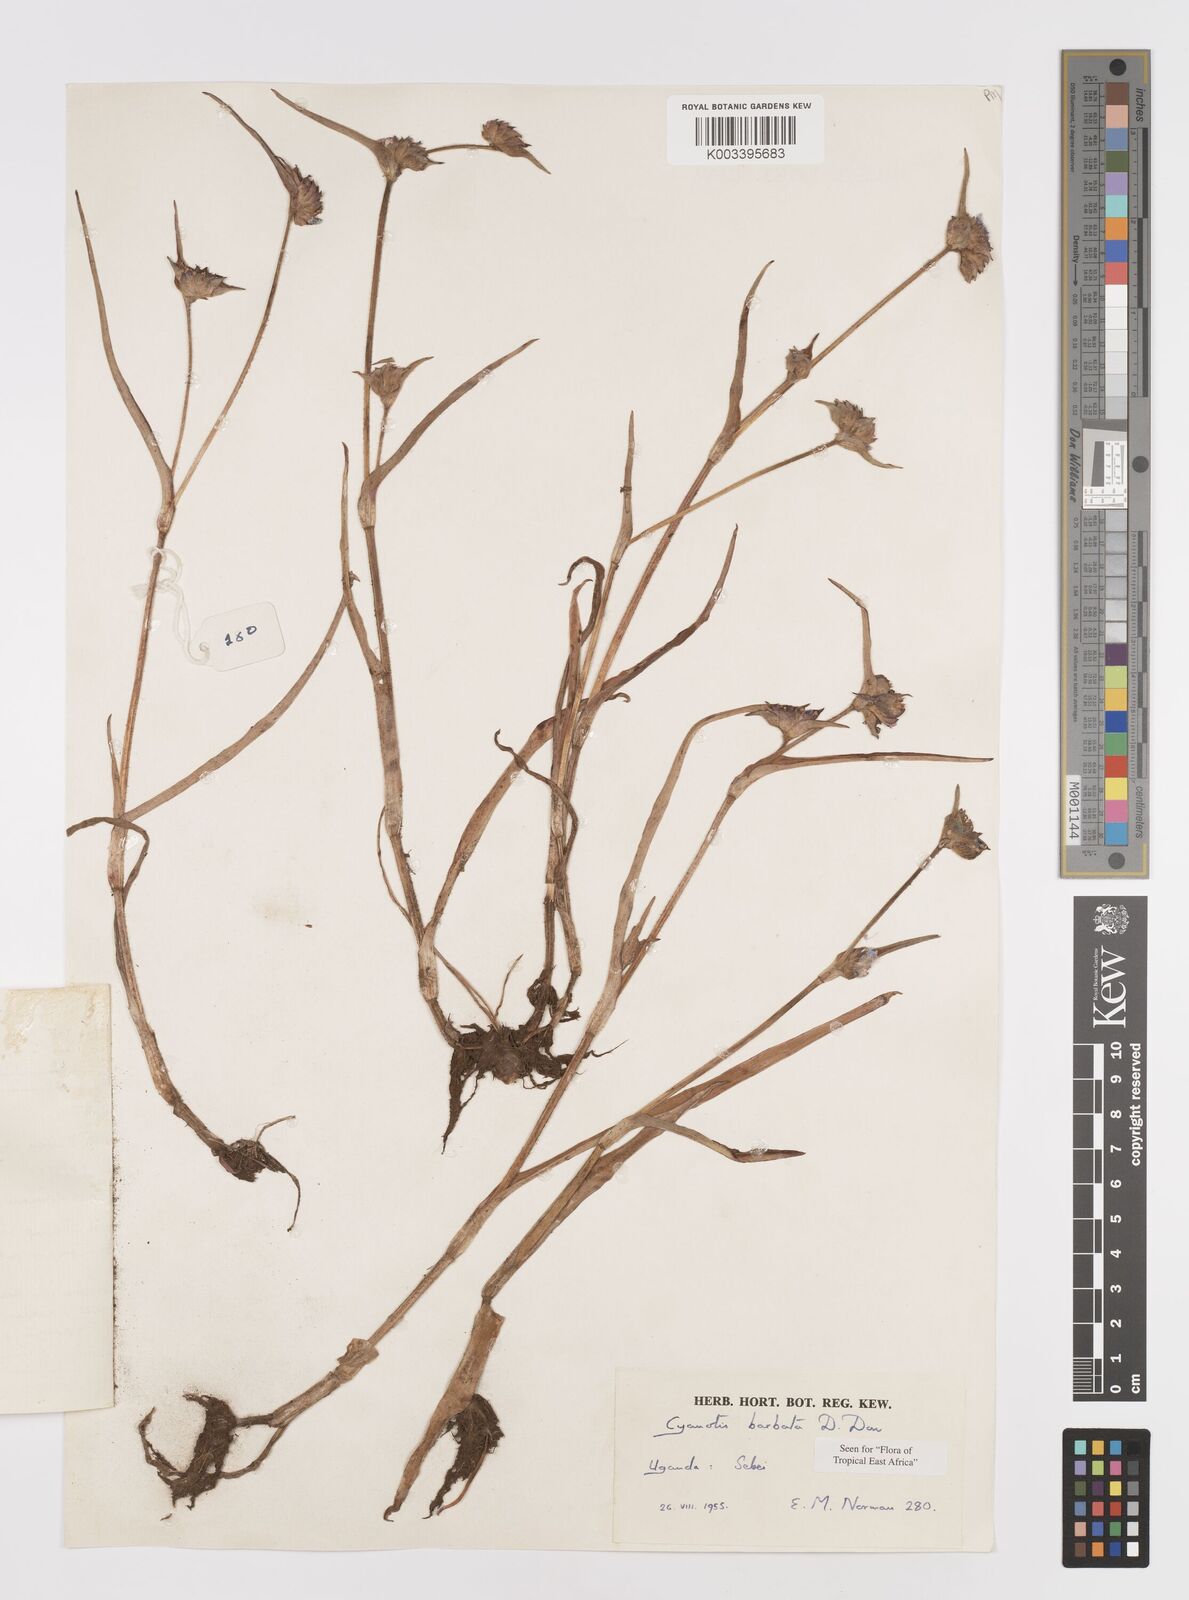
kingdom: Plantae
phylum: Tracheophyta
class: Liliopsida
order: Commelinales
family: Commelinaceae
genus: Cyanotis
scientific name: Cyanotis vaga
